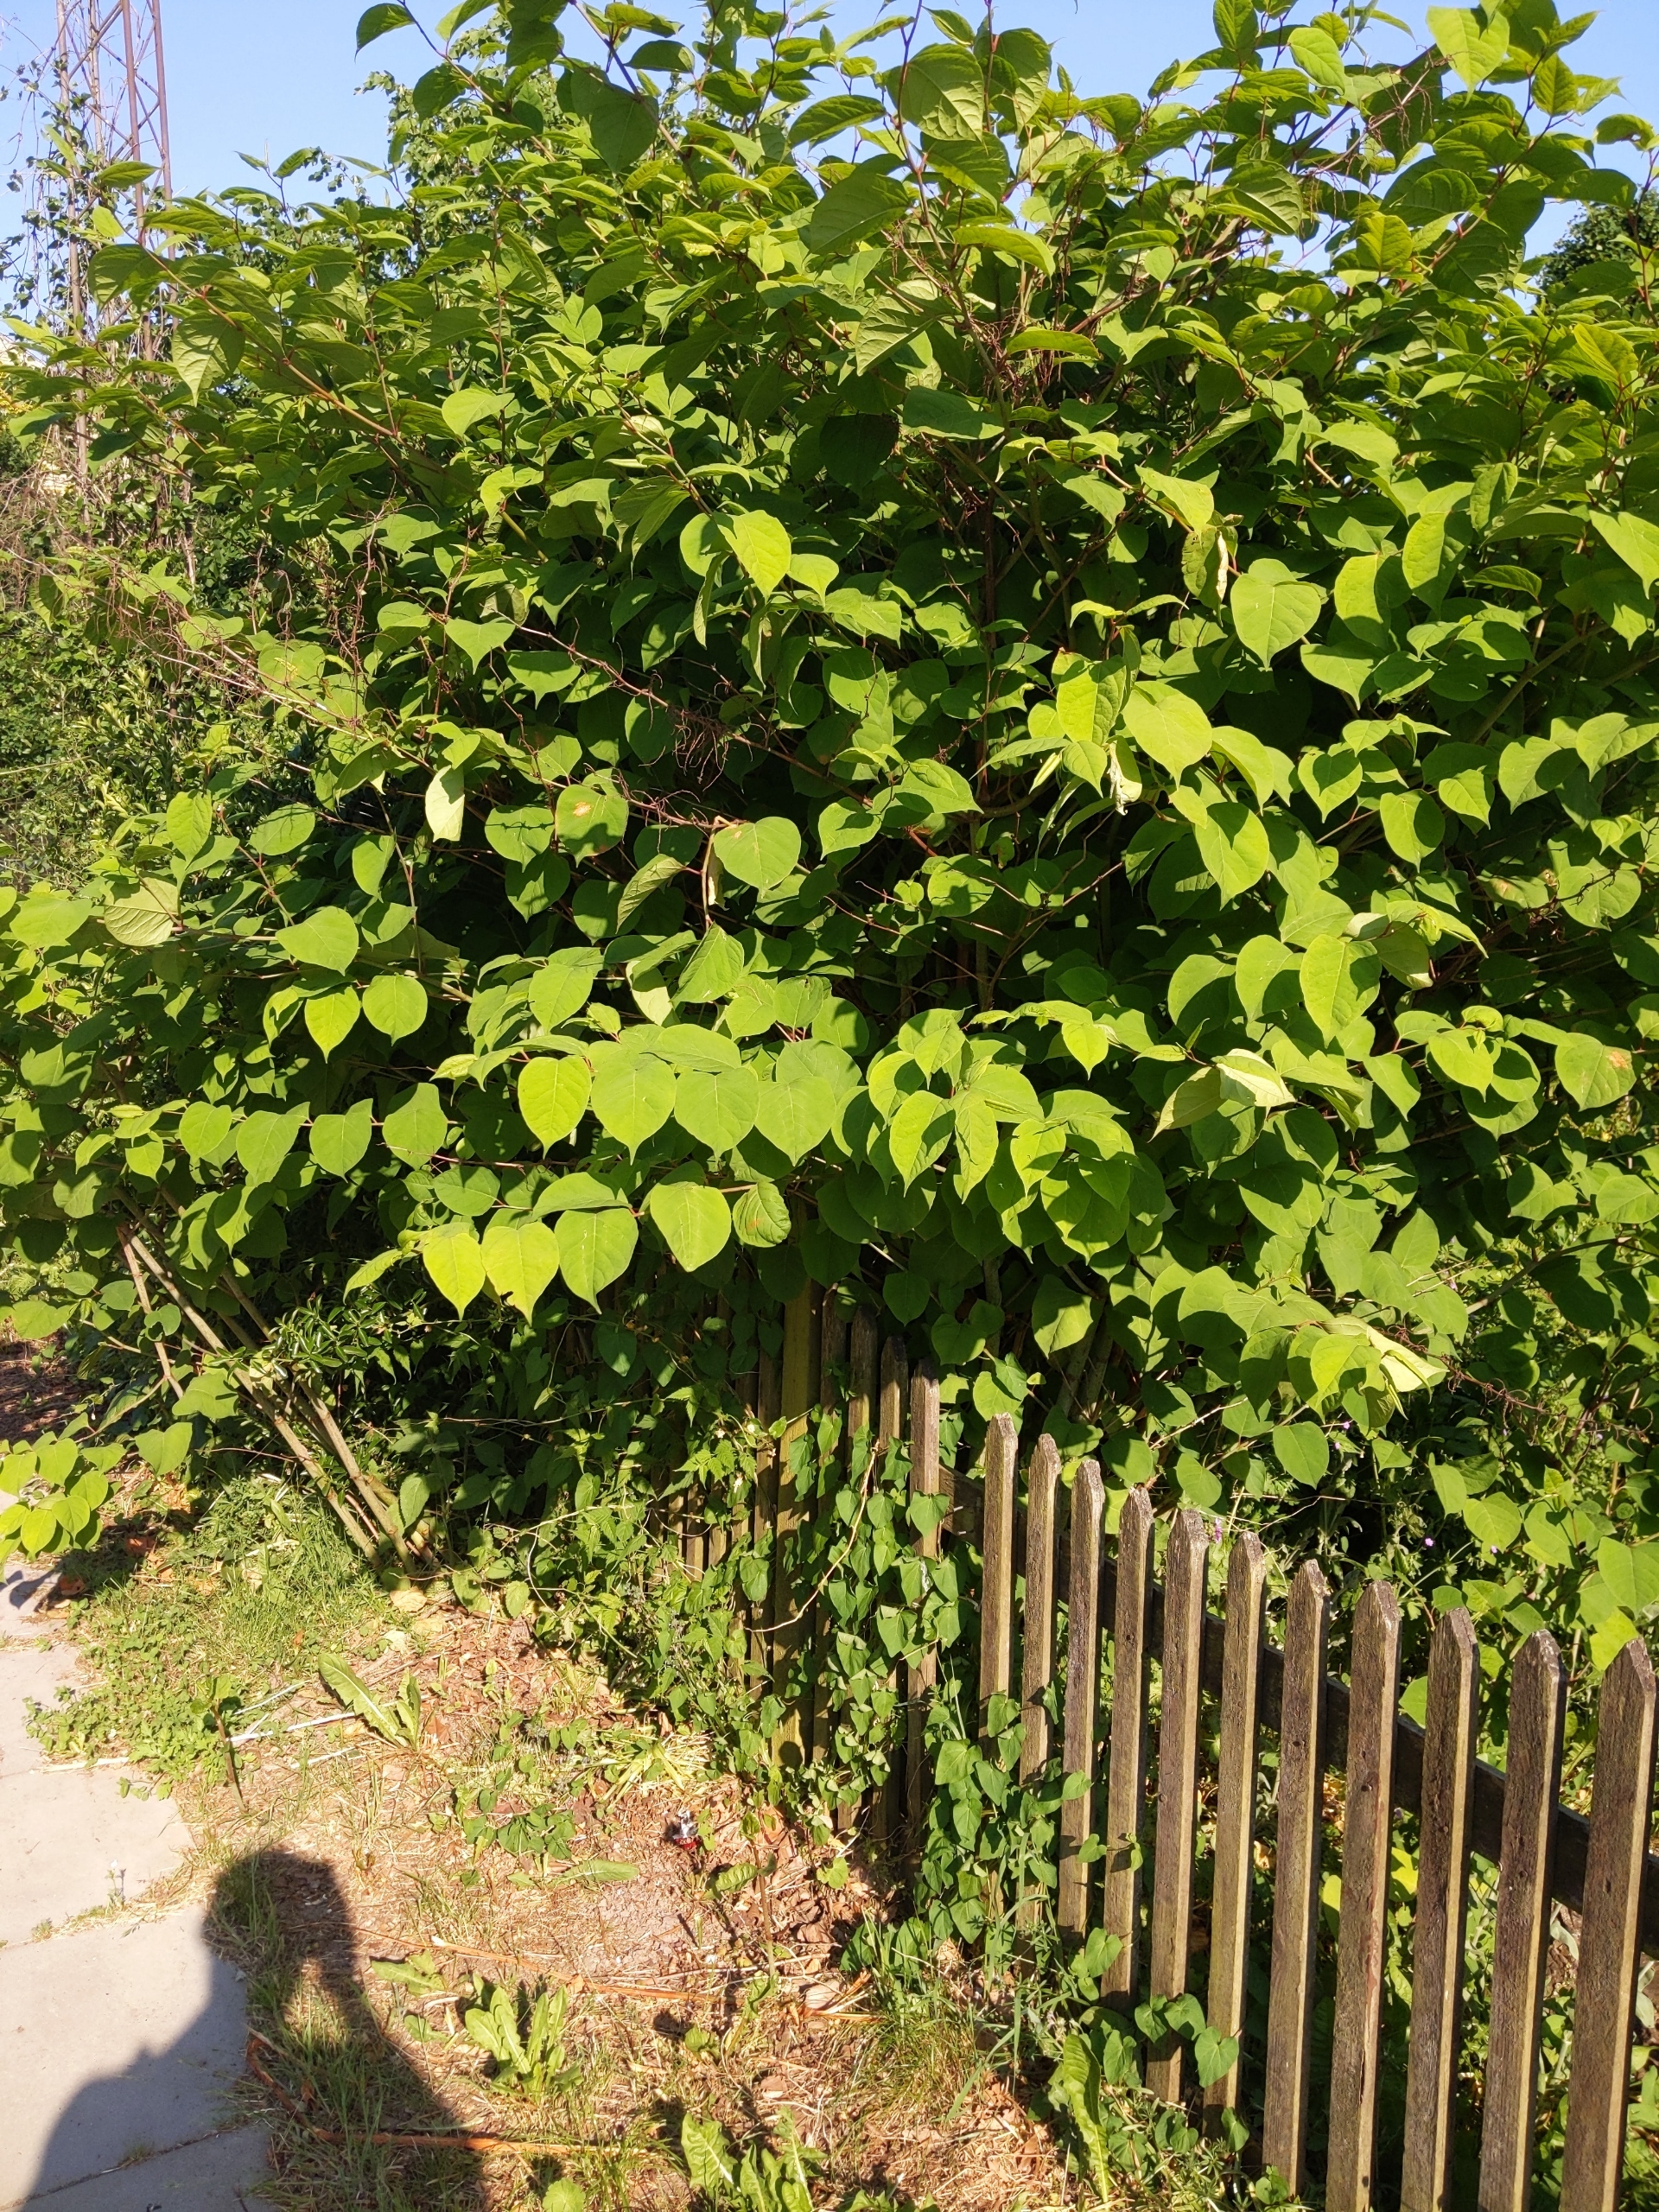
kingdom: Plantae
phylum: Tracheophyta
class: Magnoliopsida
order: Caryophyllales
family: Polygonaceae
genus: Reynoutria
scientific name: Reynoutria japonica
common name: Japan-pileurt
